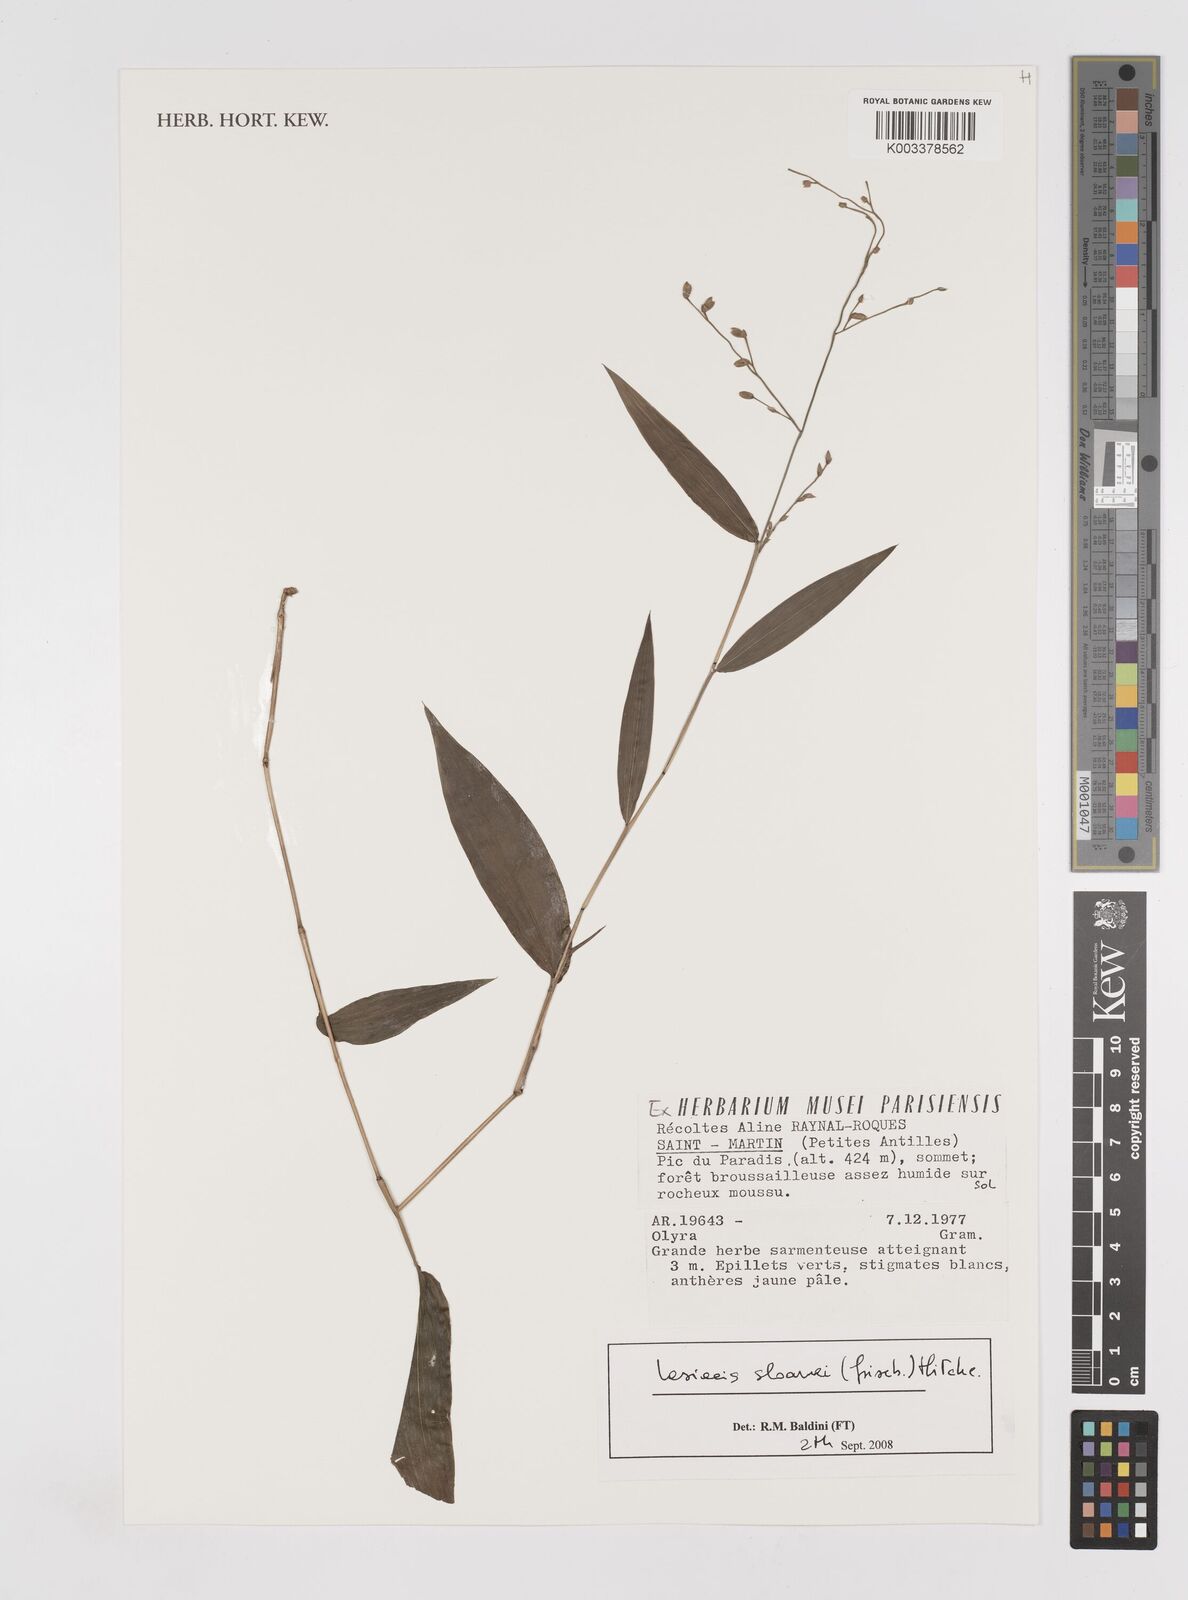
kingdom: Plantae
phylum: Tracheophyta
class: Liliopsida
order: Poales
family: Poaceae
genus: Lasiacis
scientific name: Lasiacis sloanei
